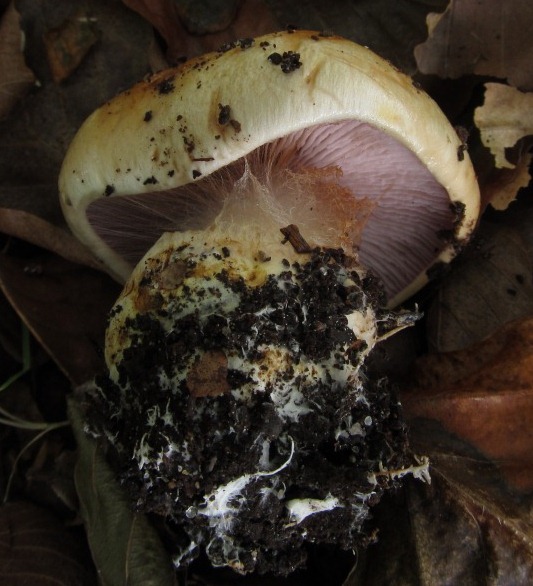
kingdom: Fungi
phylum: Basidiomycota
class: Agaricomycetes
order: Agaricales
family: Cortinariaceae
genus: Calonarius
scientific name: Calonarius albertii
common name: Alberts slørhat
